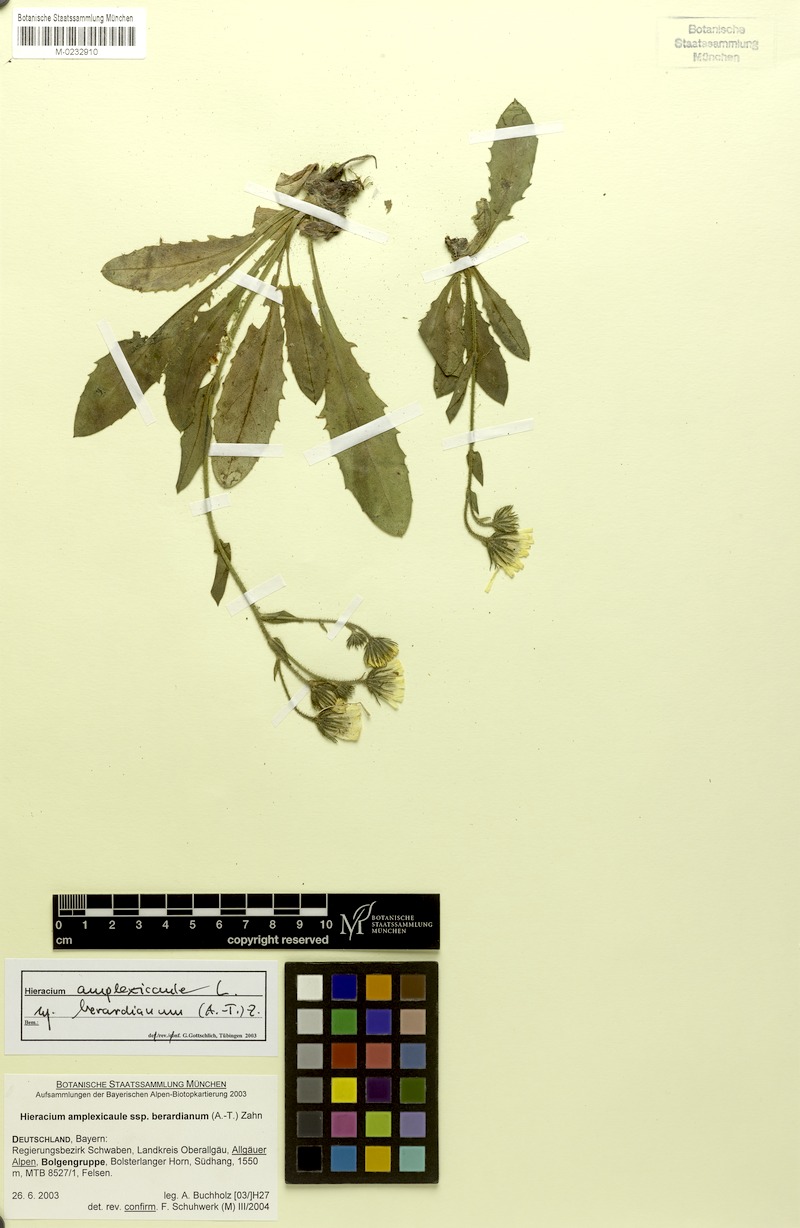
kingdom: Plantae
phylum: Tracheophyta
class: Magnoliopsida
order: Asterales
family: Asteraceae
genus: Hieracium
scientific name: Hieracium amplexicaule
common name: Sticky hawkweed
